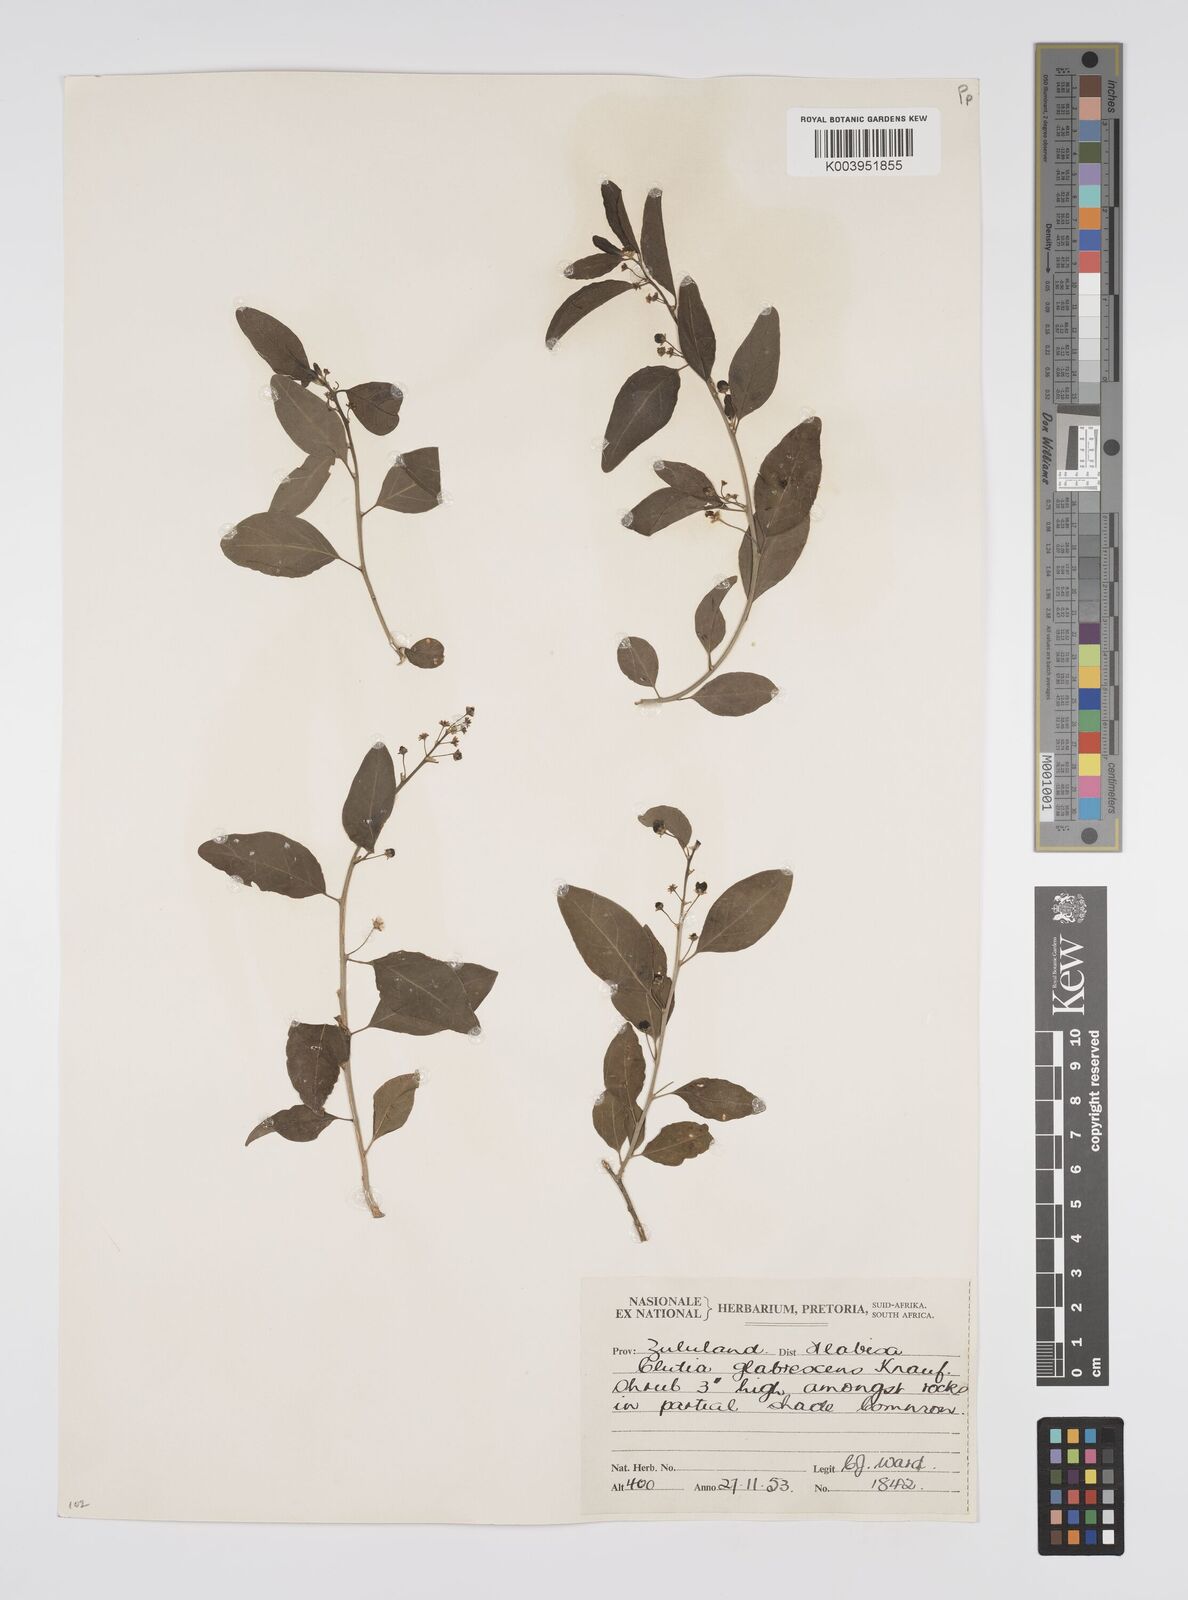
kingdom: Plantae
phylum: Tracheophyta
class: Magnoliopsida
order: Malpighiales
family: Peraceae
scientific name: Peraceae
